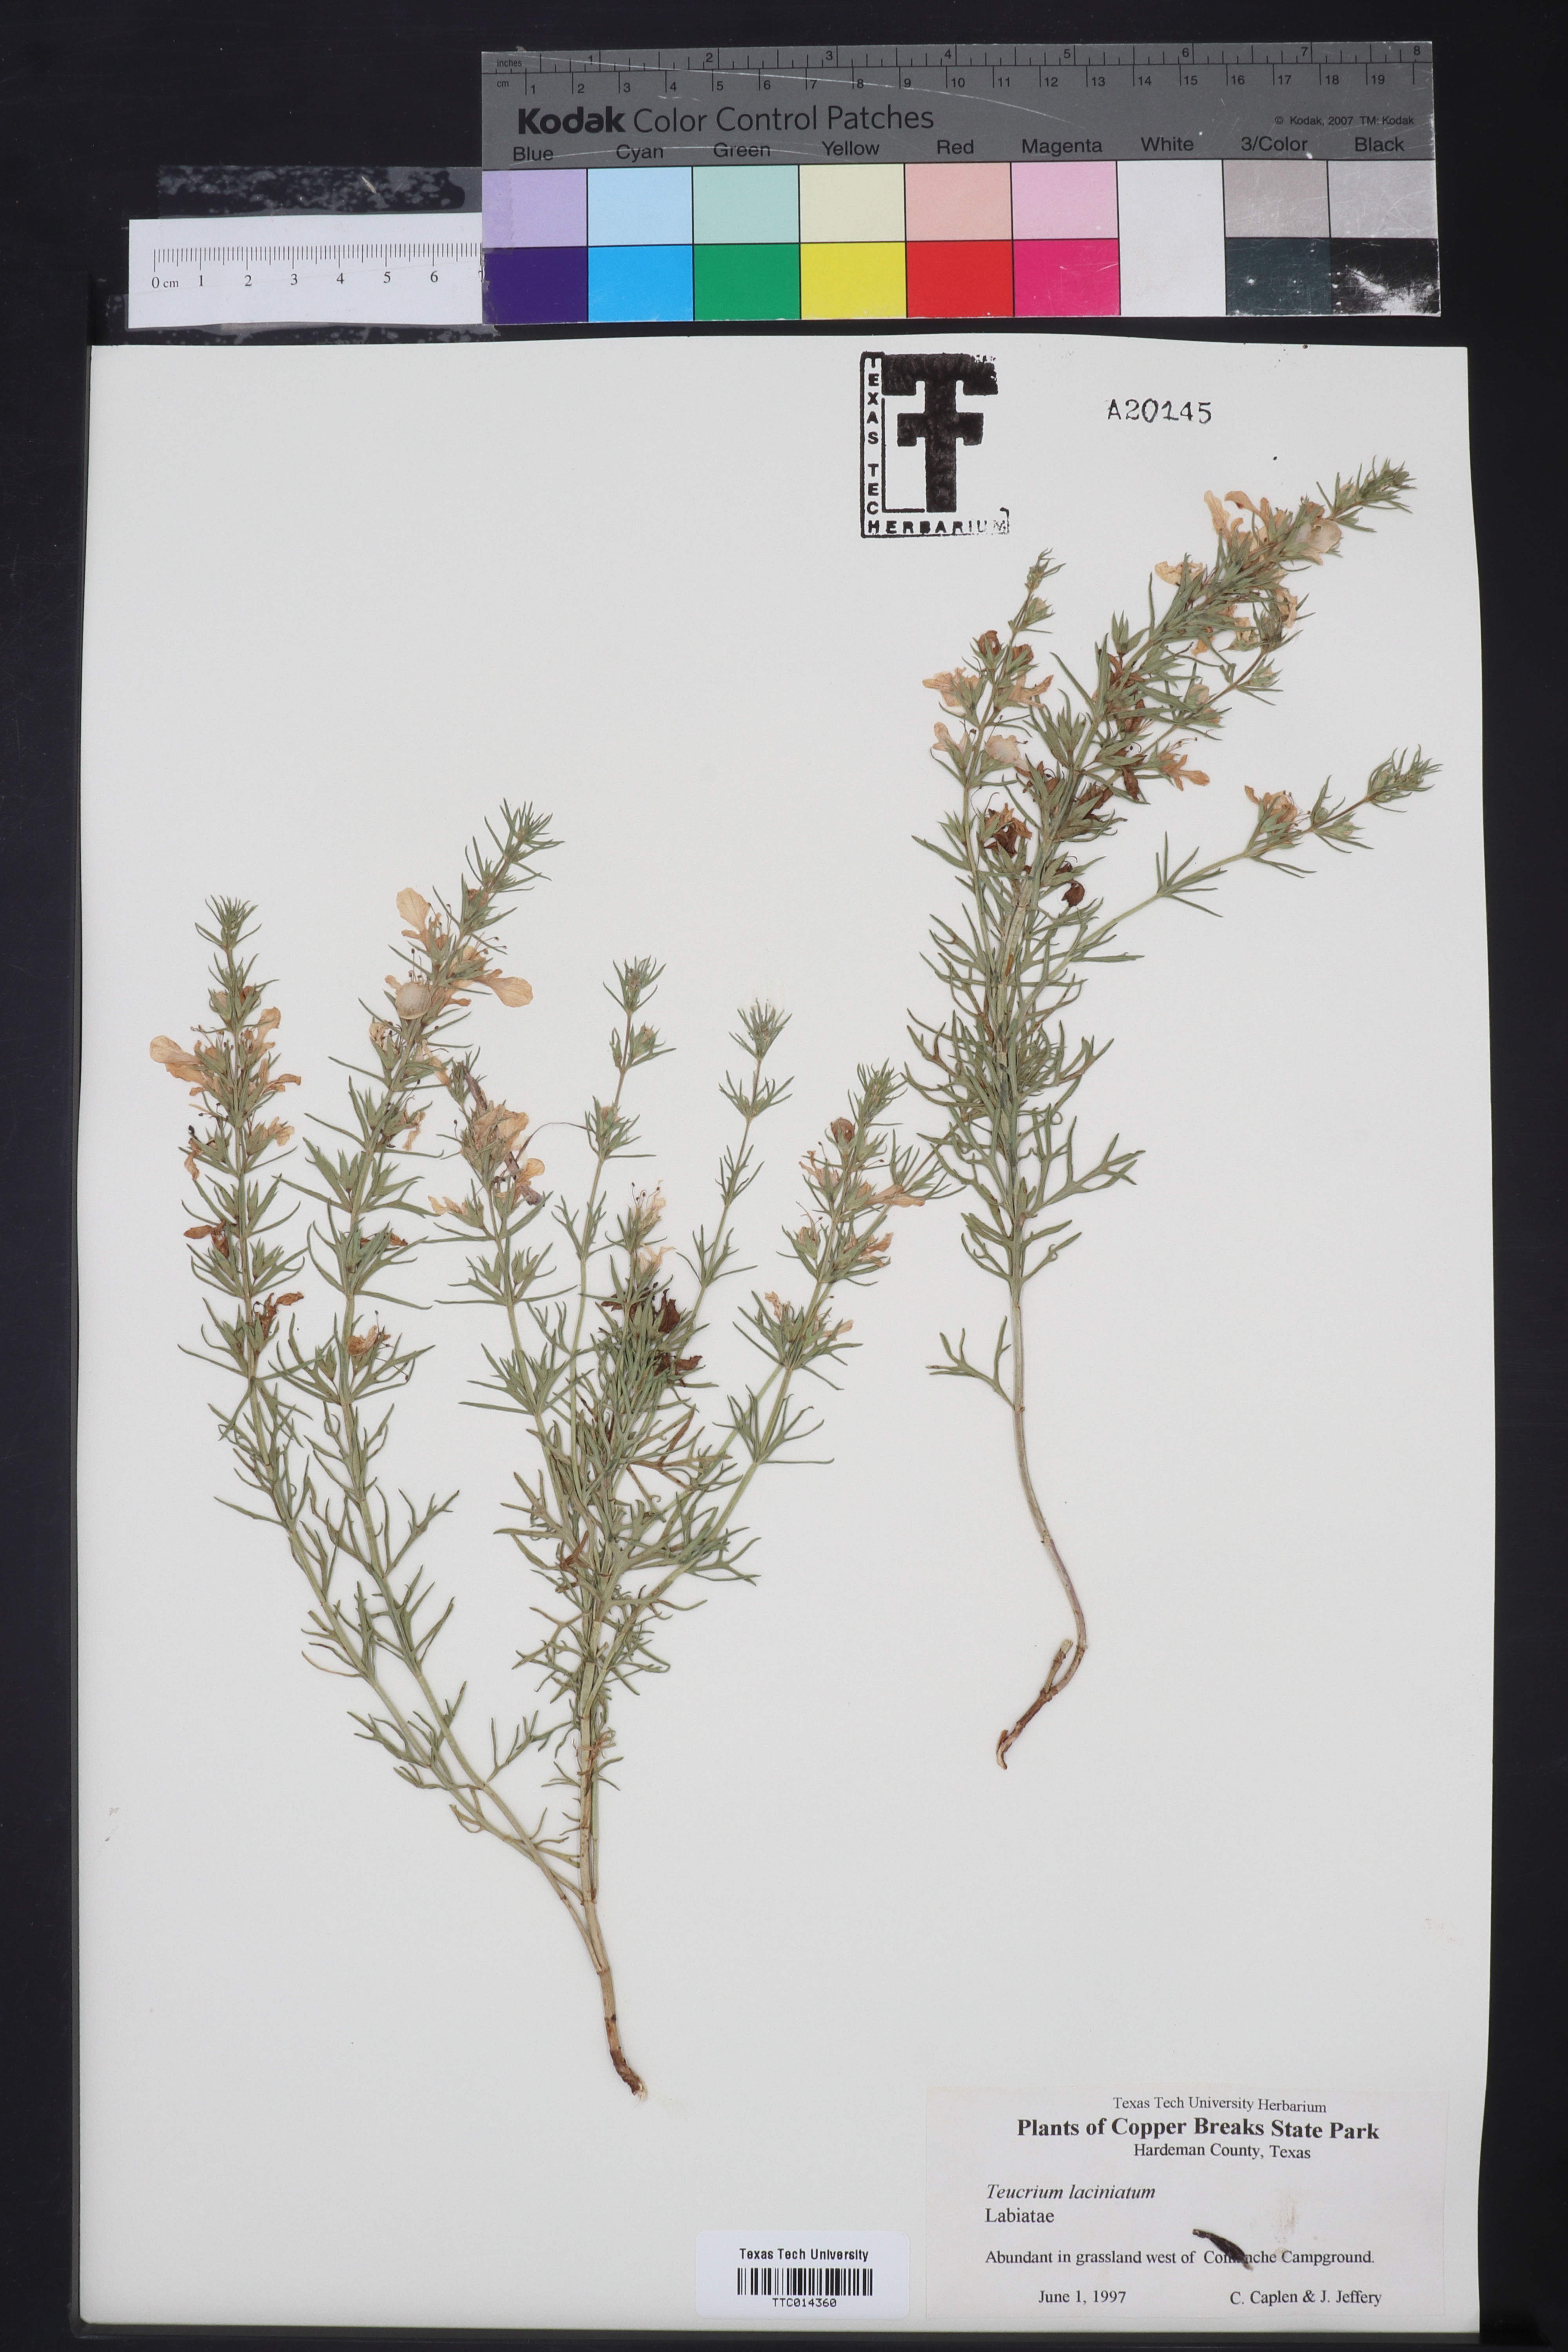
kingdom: Plantae
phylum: Tracheophyta
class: Magnoliopsida
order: Lamiales
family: Lamiaceae
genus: Teucrium
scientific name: Teucrium laciniatum
